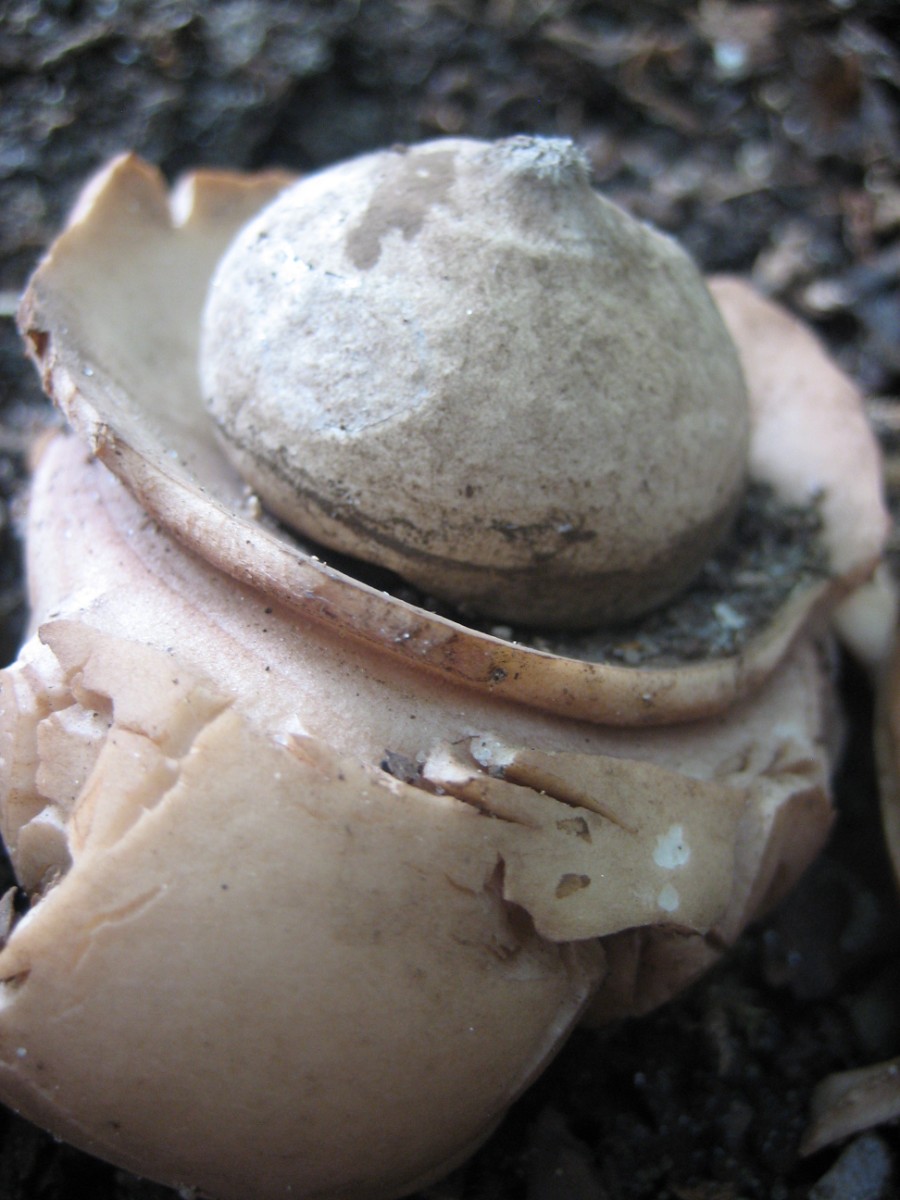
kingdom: Fungi
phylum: Basidiomycota
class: Agaricomycetes
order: Geastrales
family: Geastraceae
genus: Geastrum
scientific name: Geastrum michelianum
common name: kødet stjernebold
